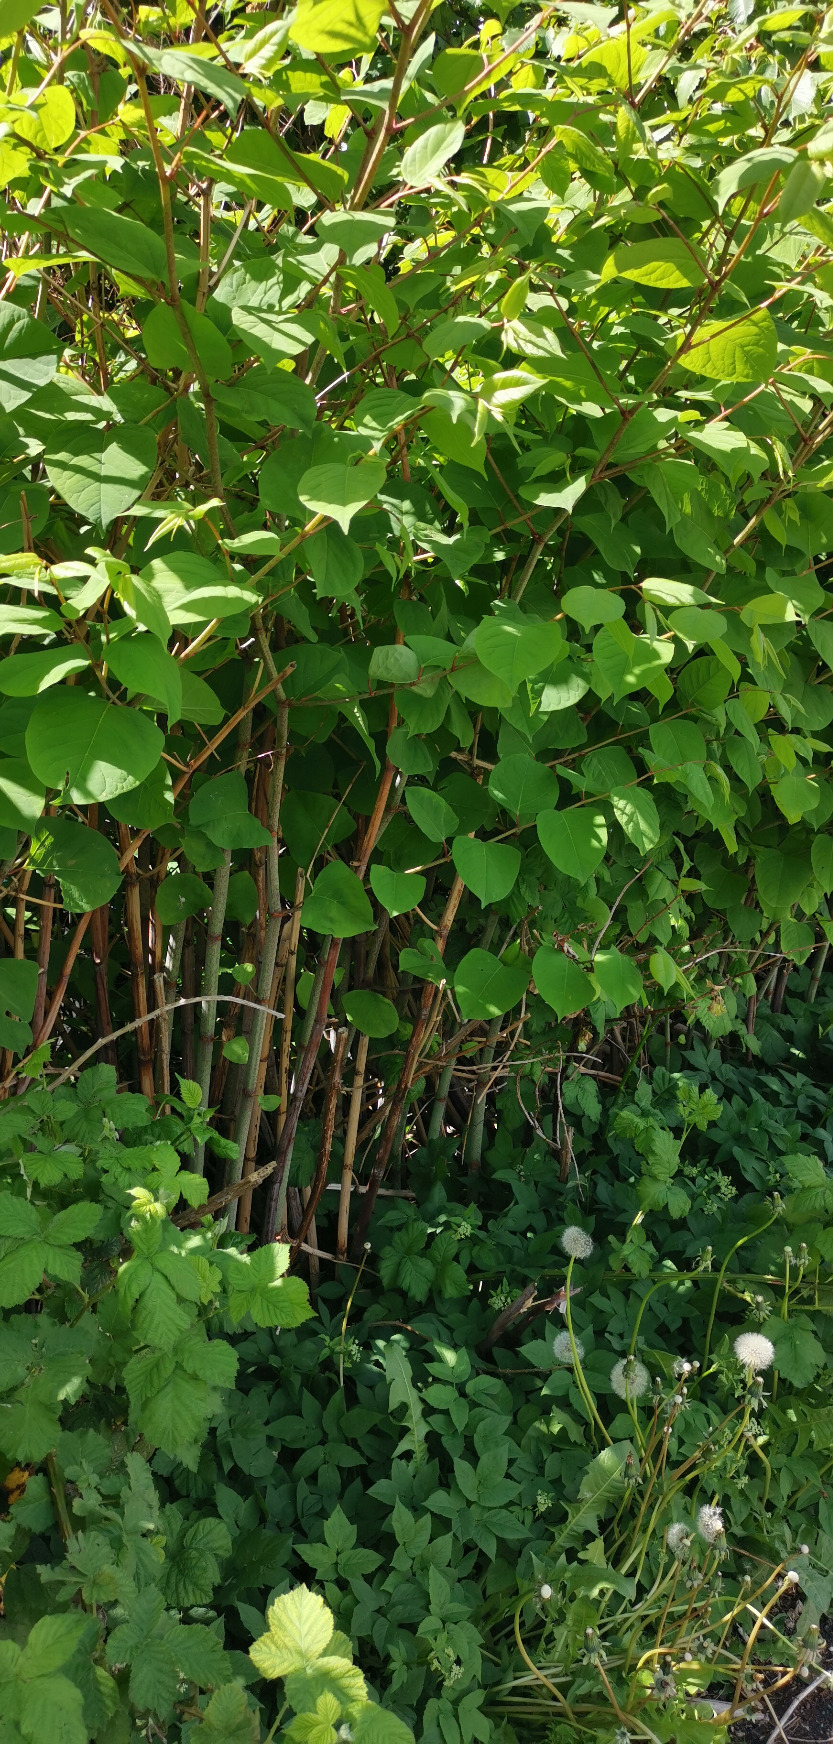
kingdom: Plantae
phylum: Tracheophyta
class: Magnoliopsida
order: Caryophyllales
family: Polygonaceae
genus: Reynoutria
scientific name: Reynoutria japonica
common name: Japan-pileurt
